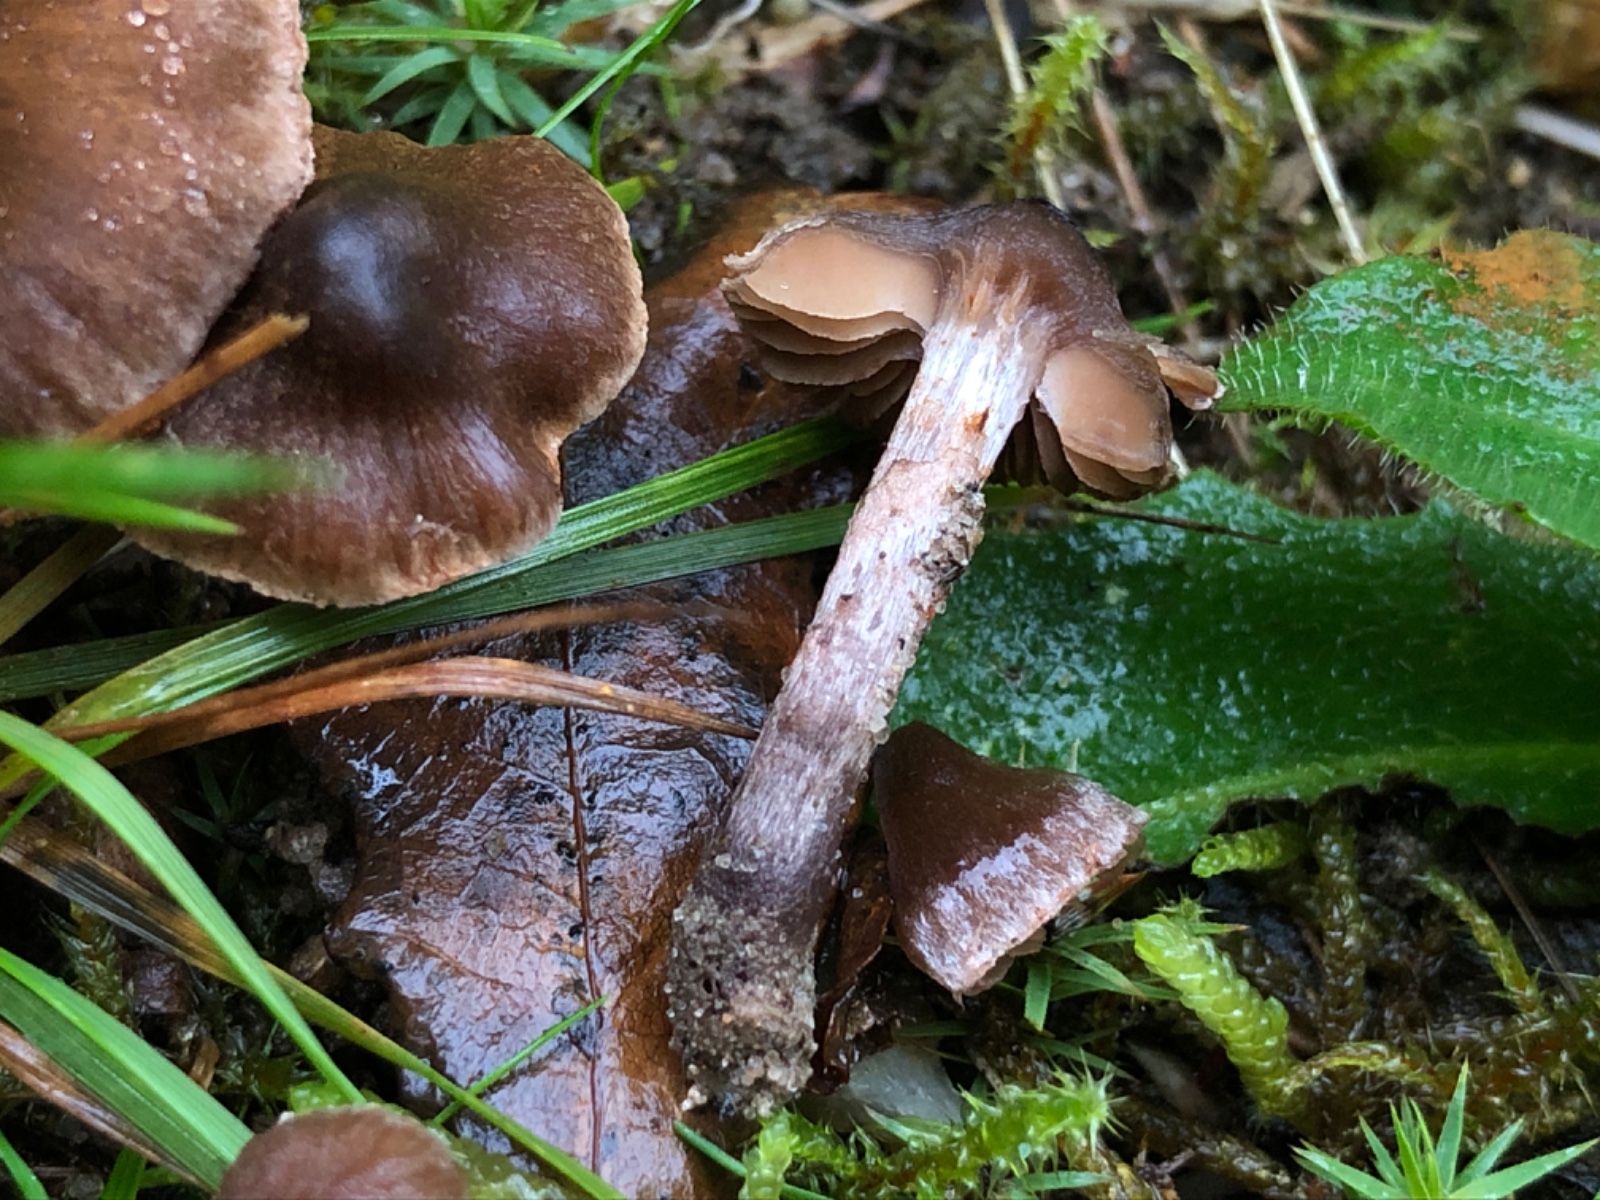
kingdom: Fungi
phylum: Basidiomycota
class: Agaricomycetes
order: Agaricales
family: Cortinariaceae
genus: Cortinarius
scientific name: Cortinarius vernus
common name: sommer-slørhat
